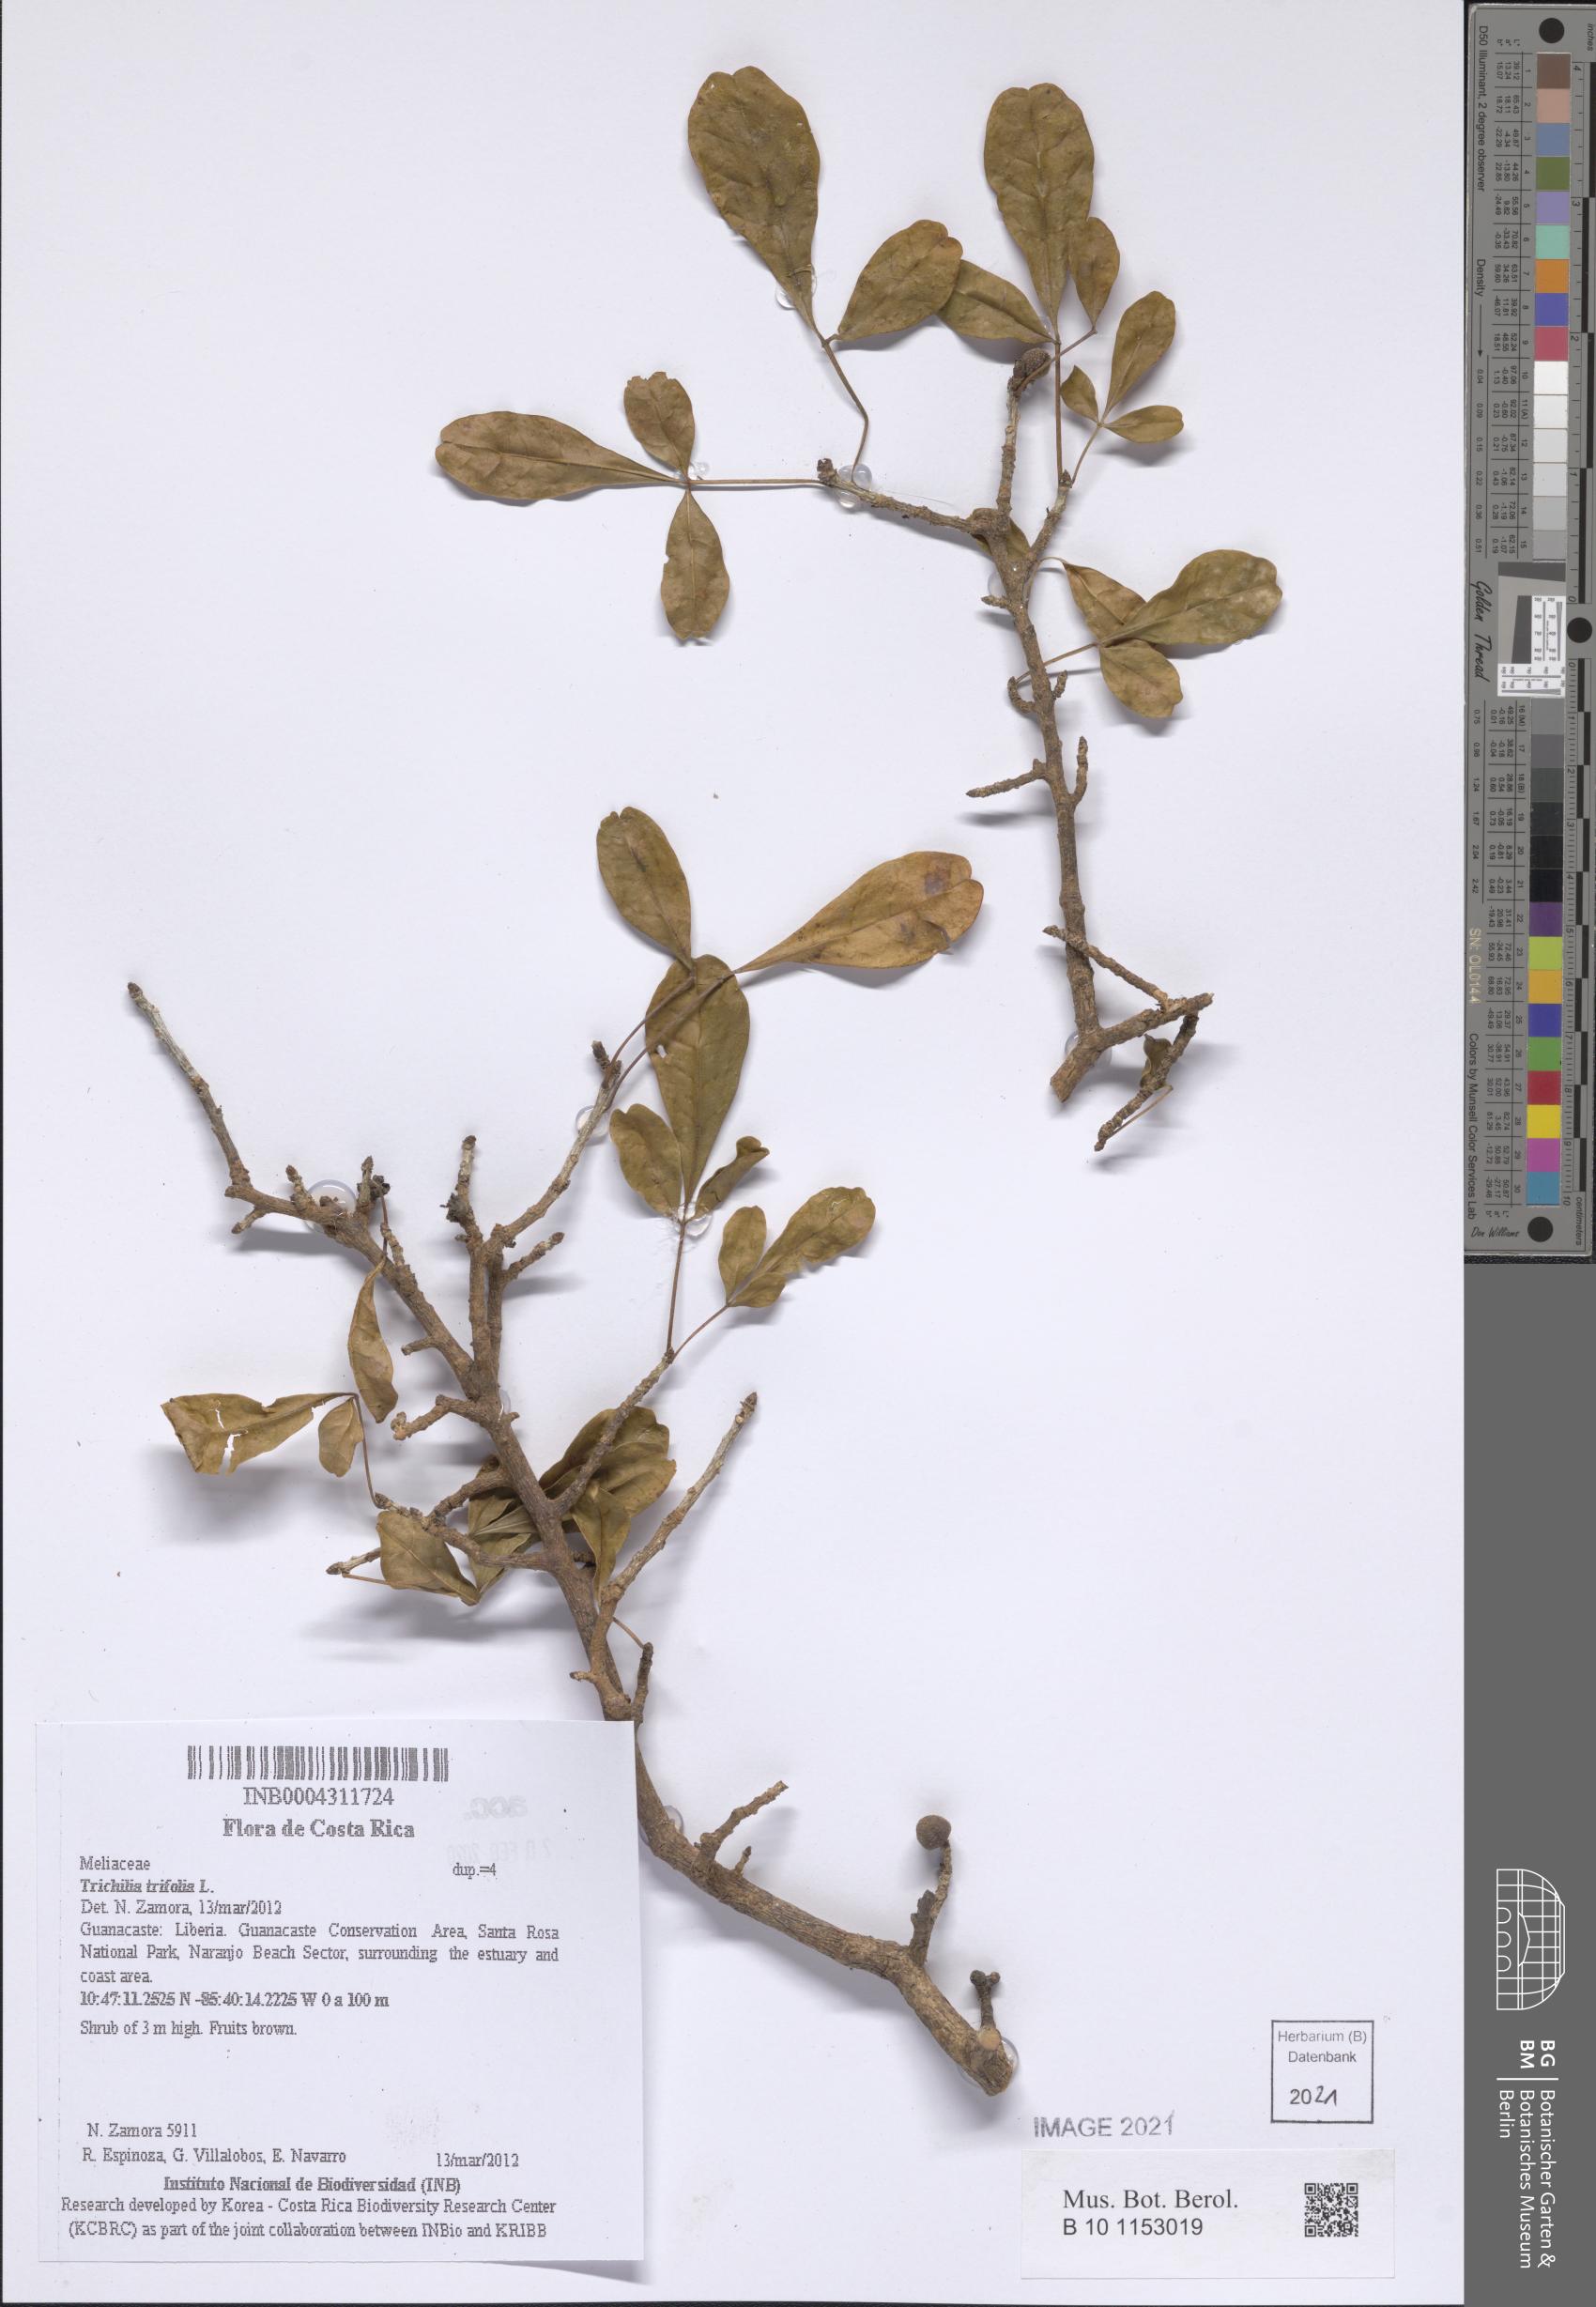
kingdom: Plantae
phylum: Tracheophyta
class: Magnoliopsida
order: Sapindales
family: Meliaceae
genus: Trichilia
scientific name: Trichilia trifolia
